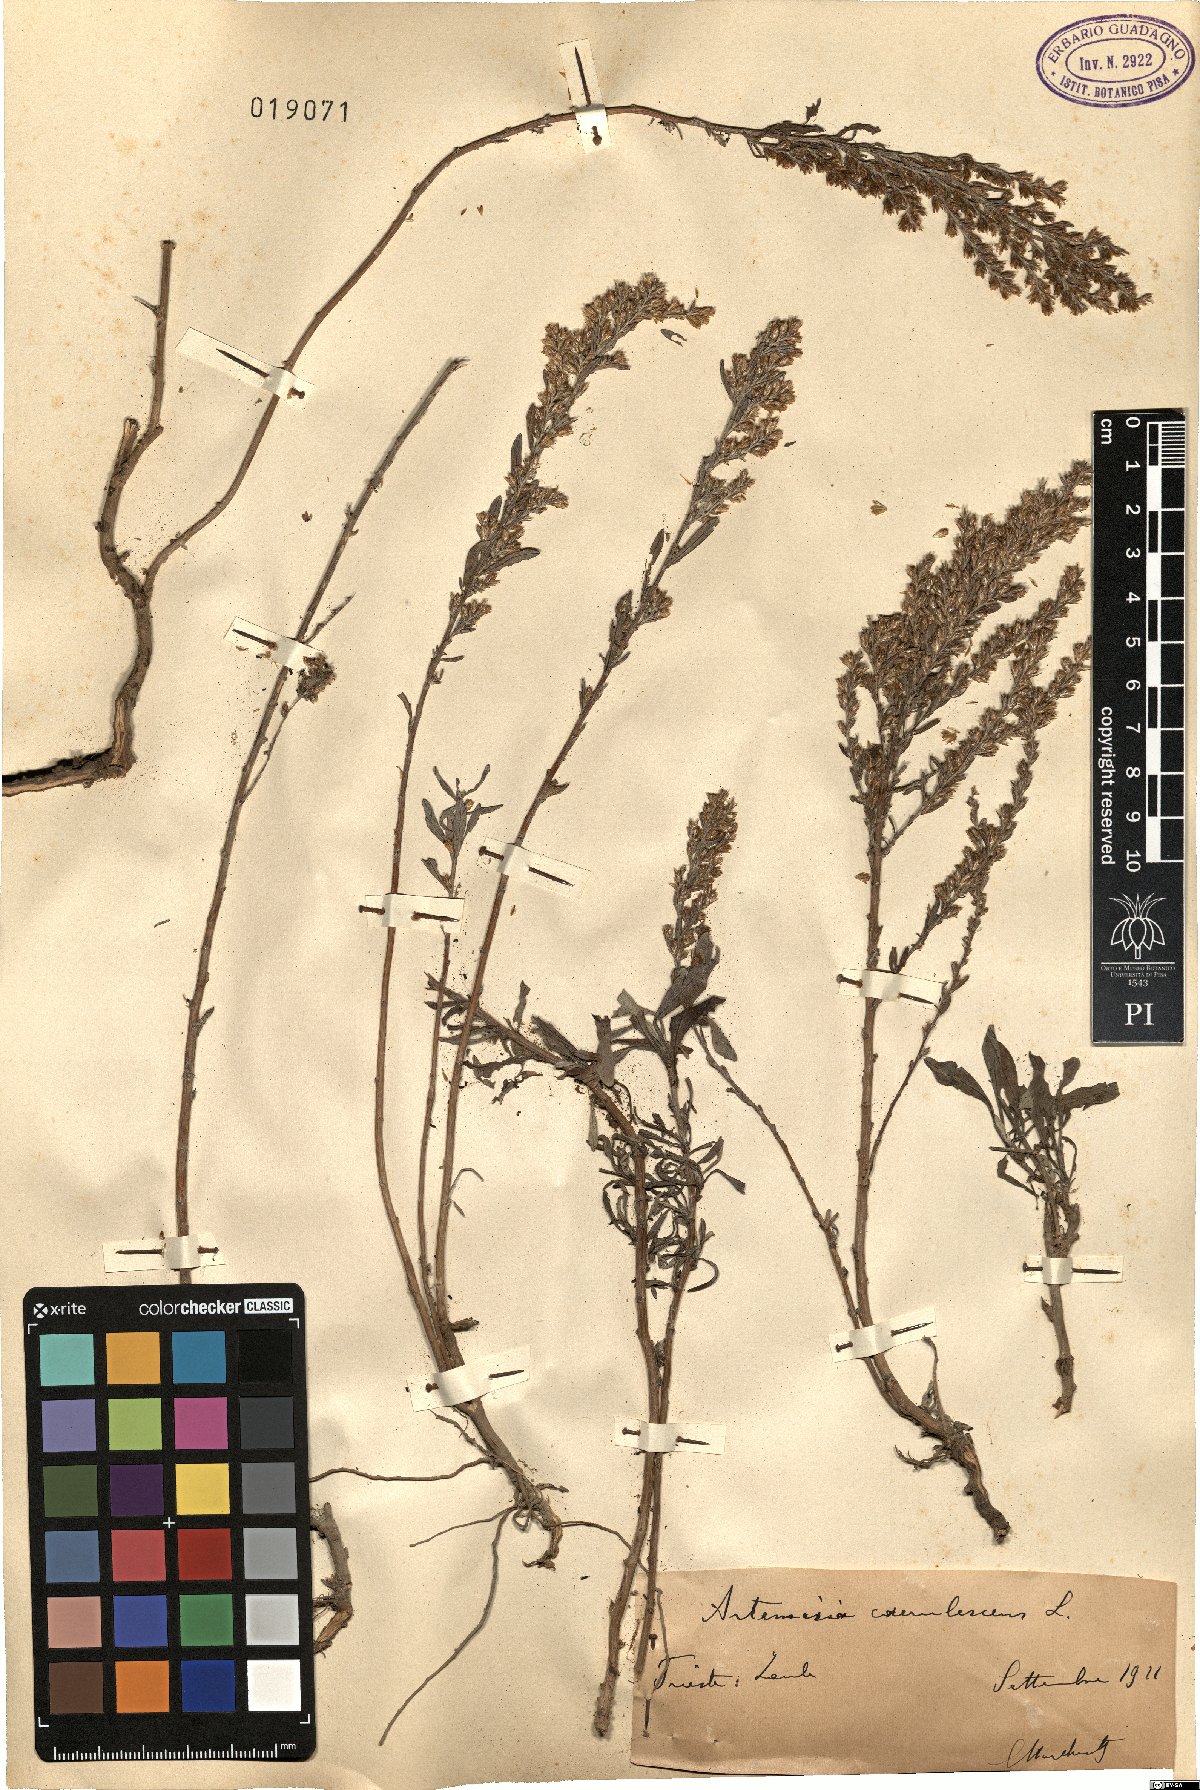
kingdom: Plantae
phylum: Tracheophyta
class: Magnoliopsida
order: Asterales
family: Asteraceae
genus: Artemisia
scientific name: Artemisia caerulescens
